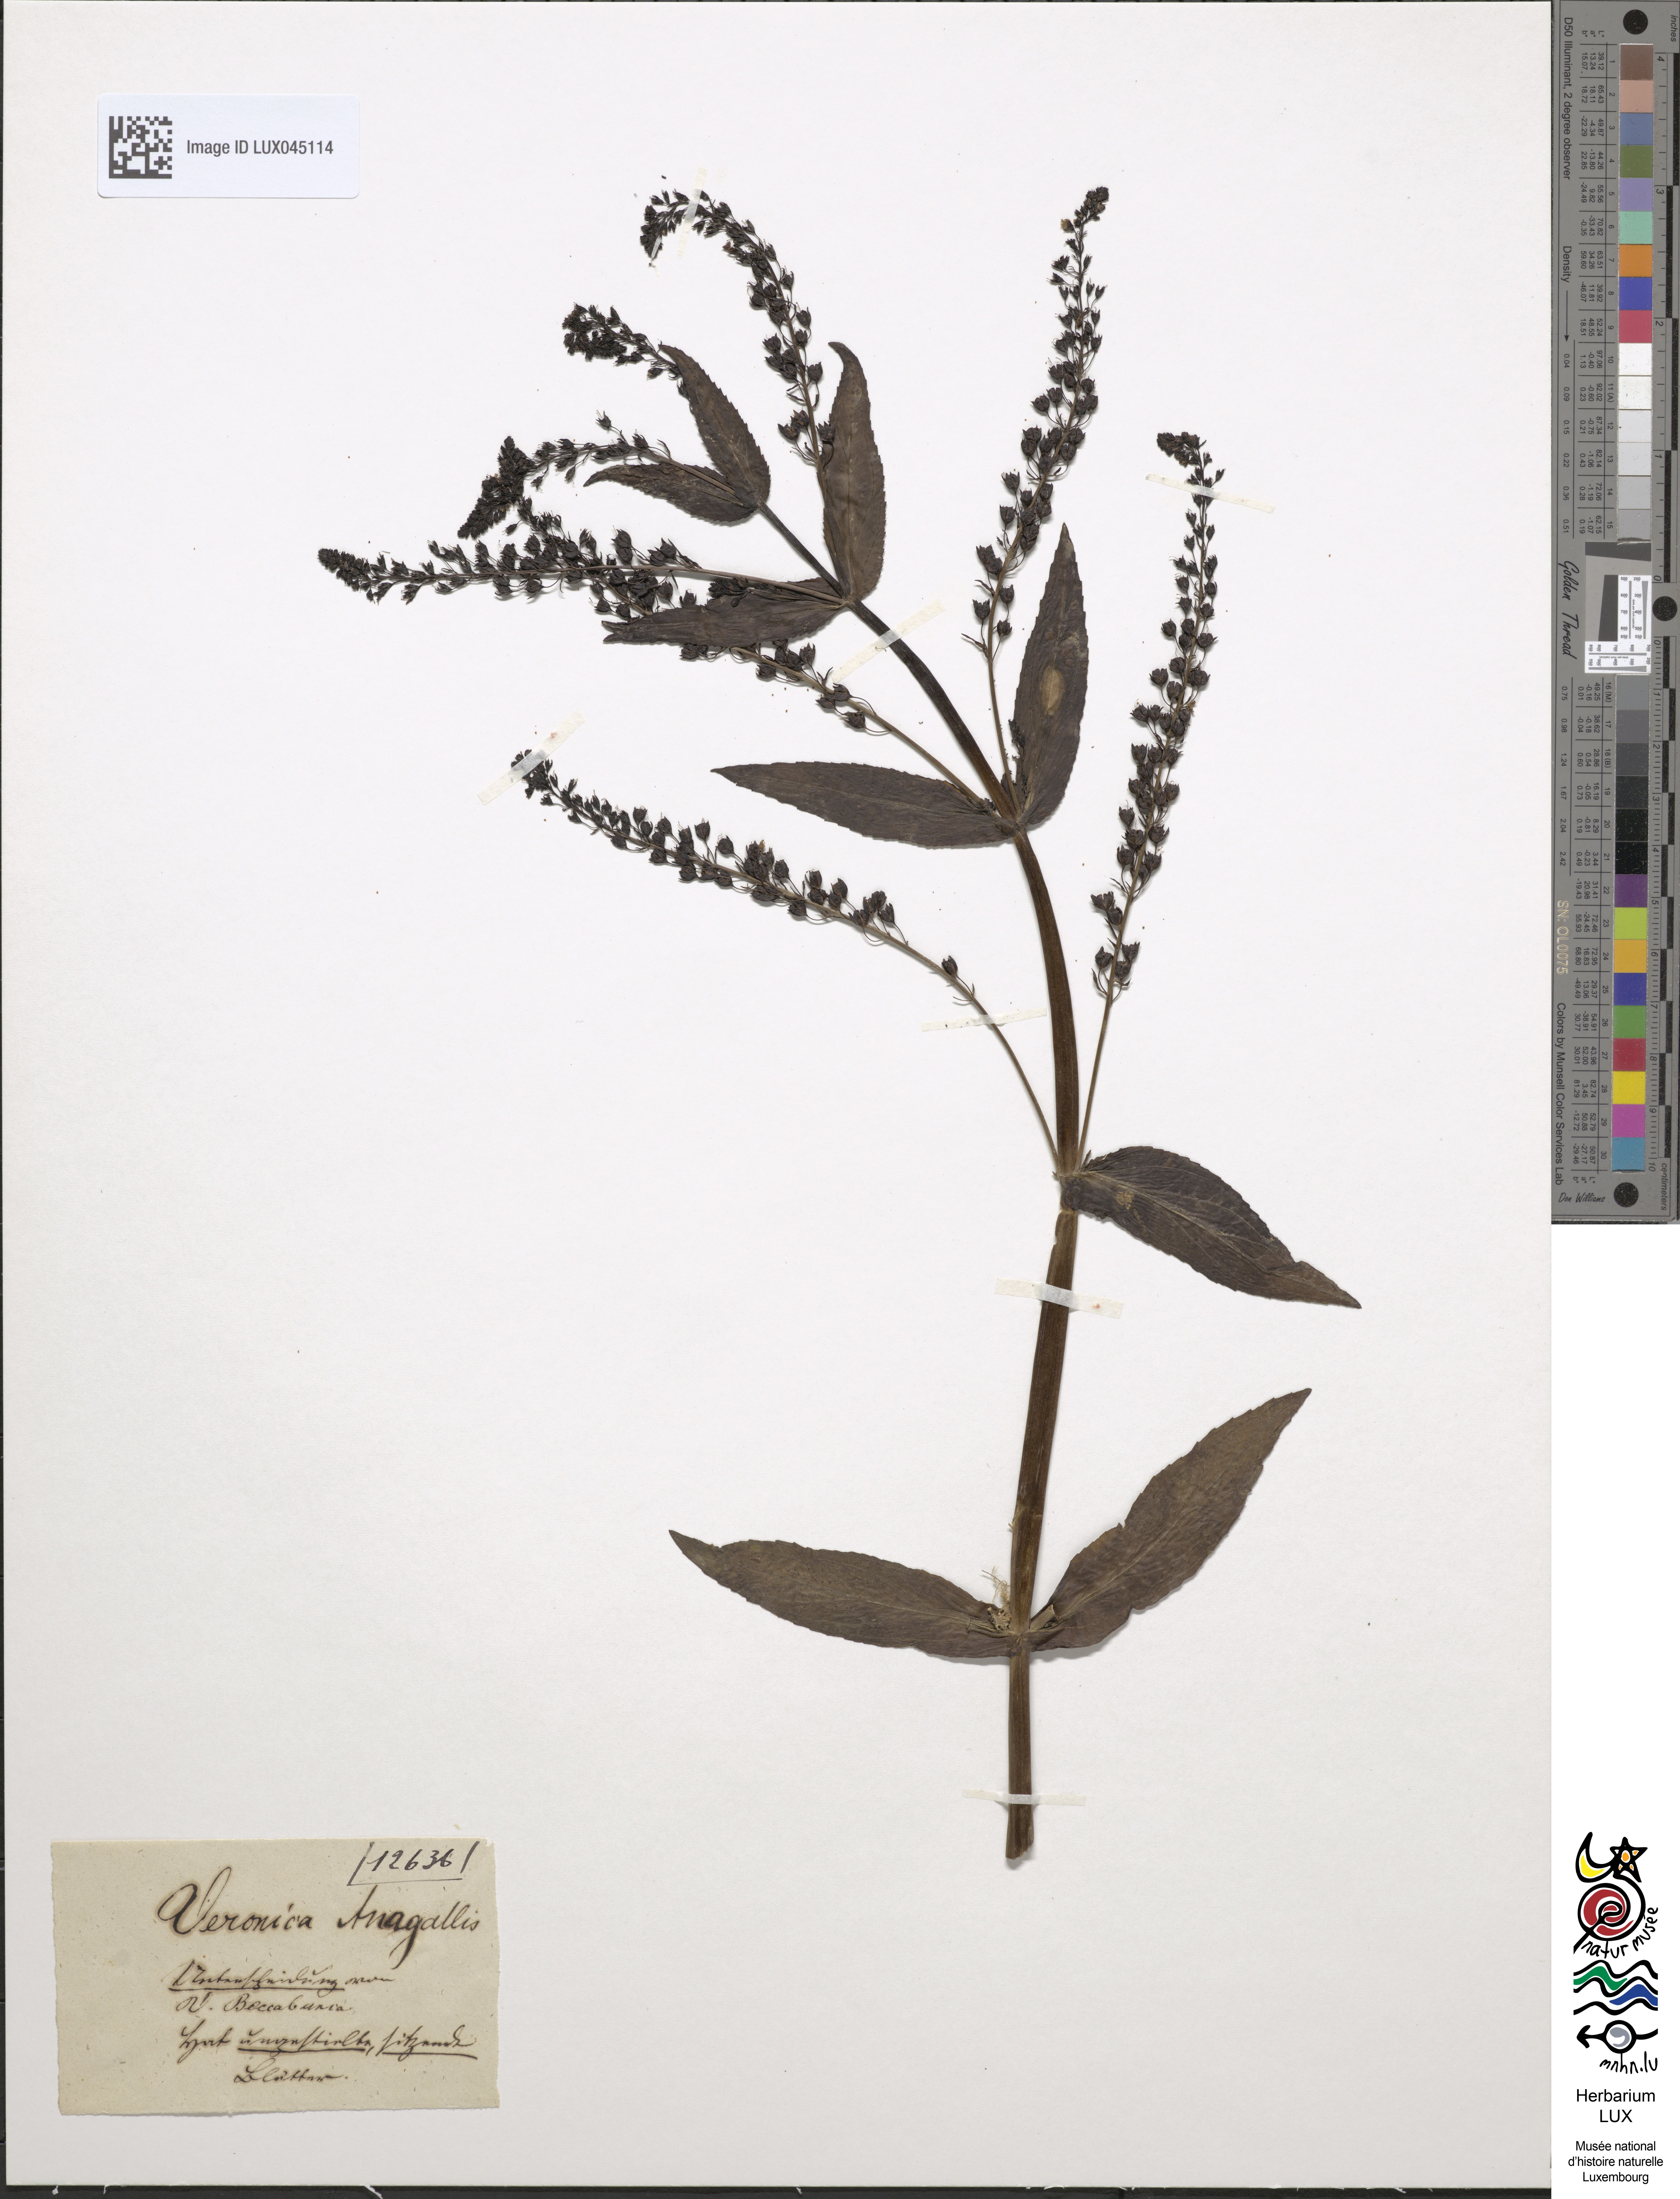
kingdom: Plantae
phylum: Tracheophyta
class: Magnoliopsida
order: Lamiales
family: Plantaginaceae
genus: Veronica
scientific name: Veronica anagallis-aquatica
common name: Water speedwell
